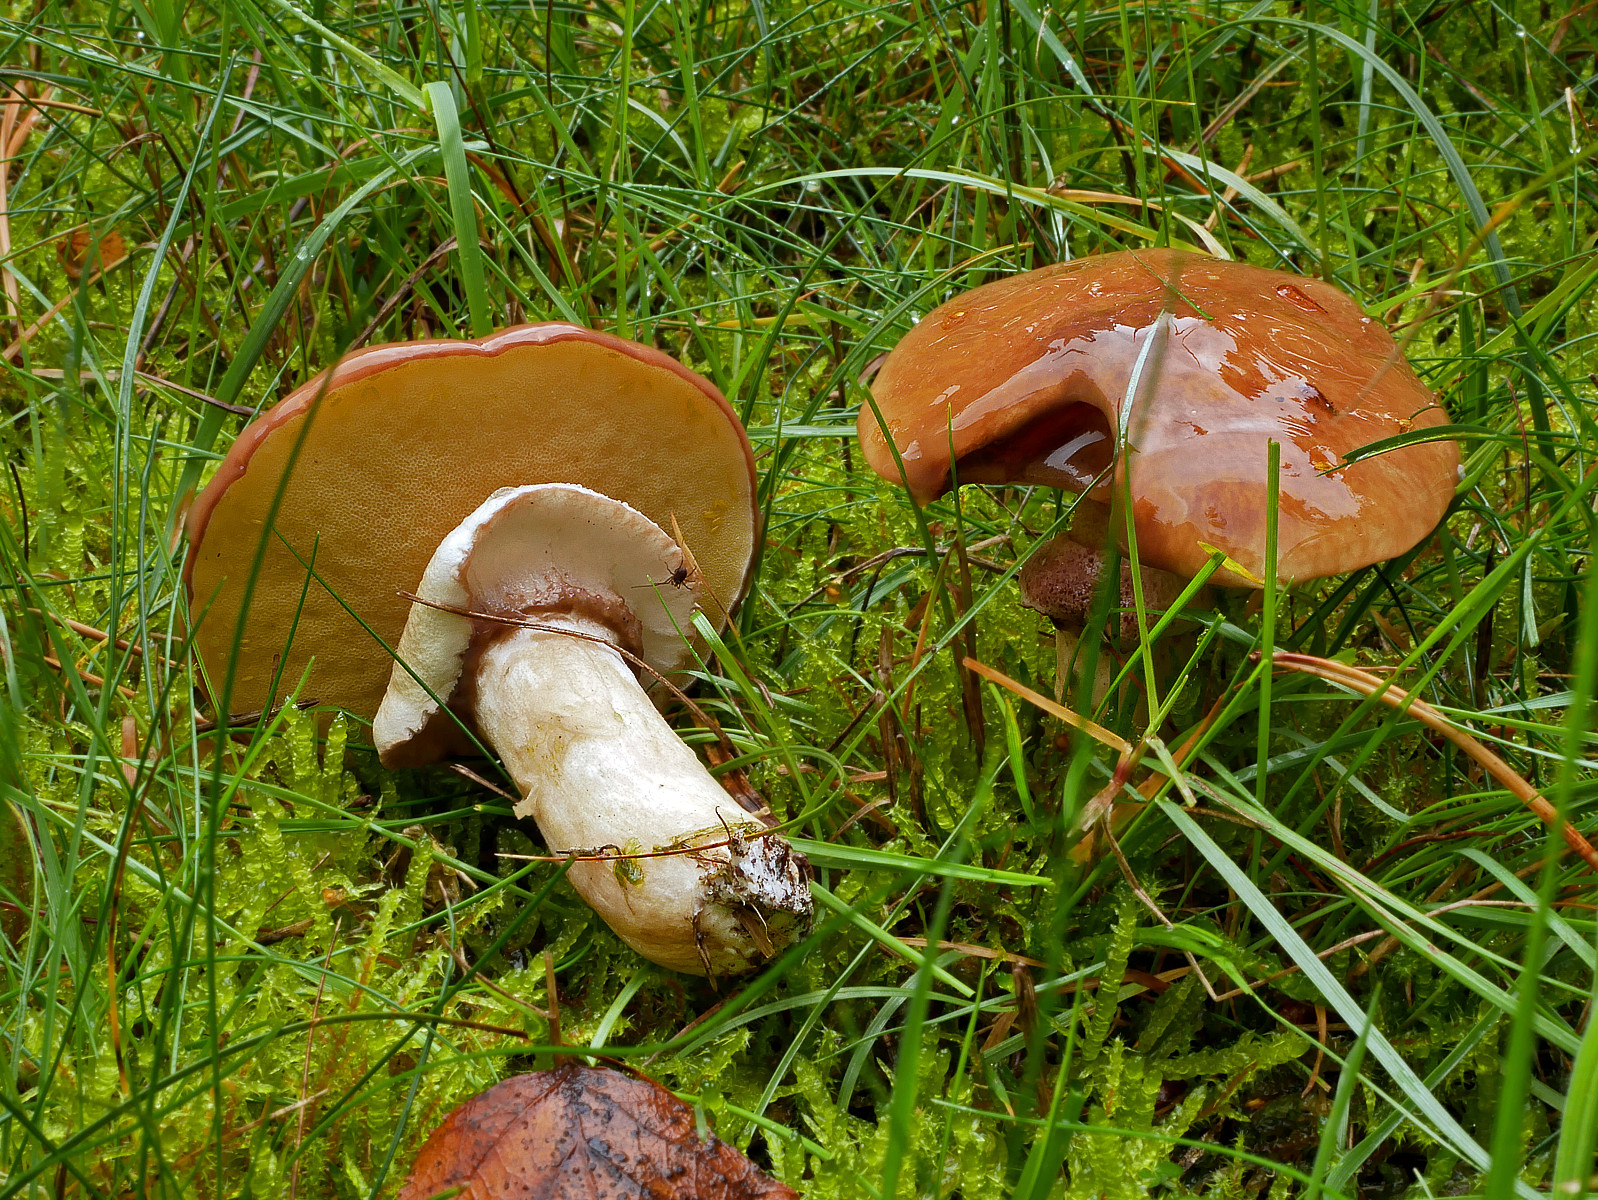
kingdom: Fungi
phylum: Basidiomycota
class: Agaricomycetes
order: Boletales
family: Suillaceae
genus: Suillus
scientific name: Suillus luteus
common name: brungul slimrørhat
